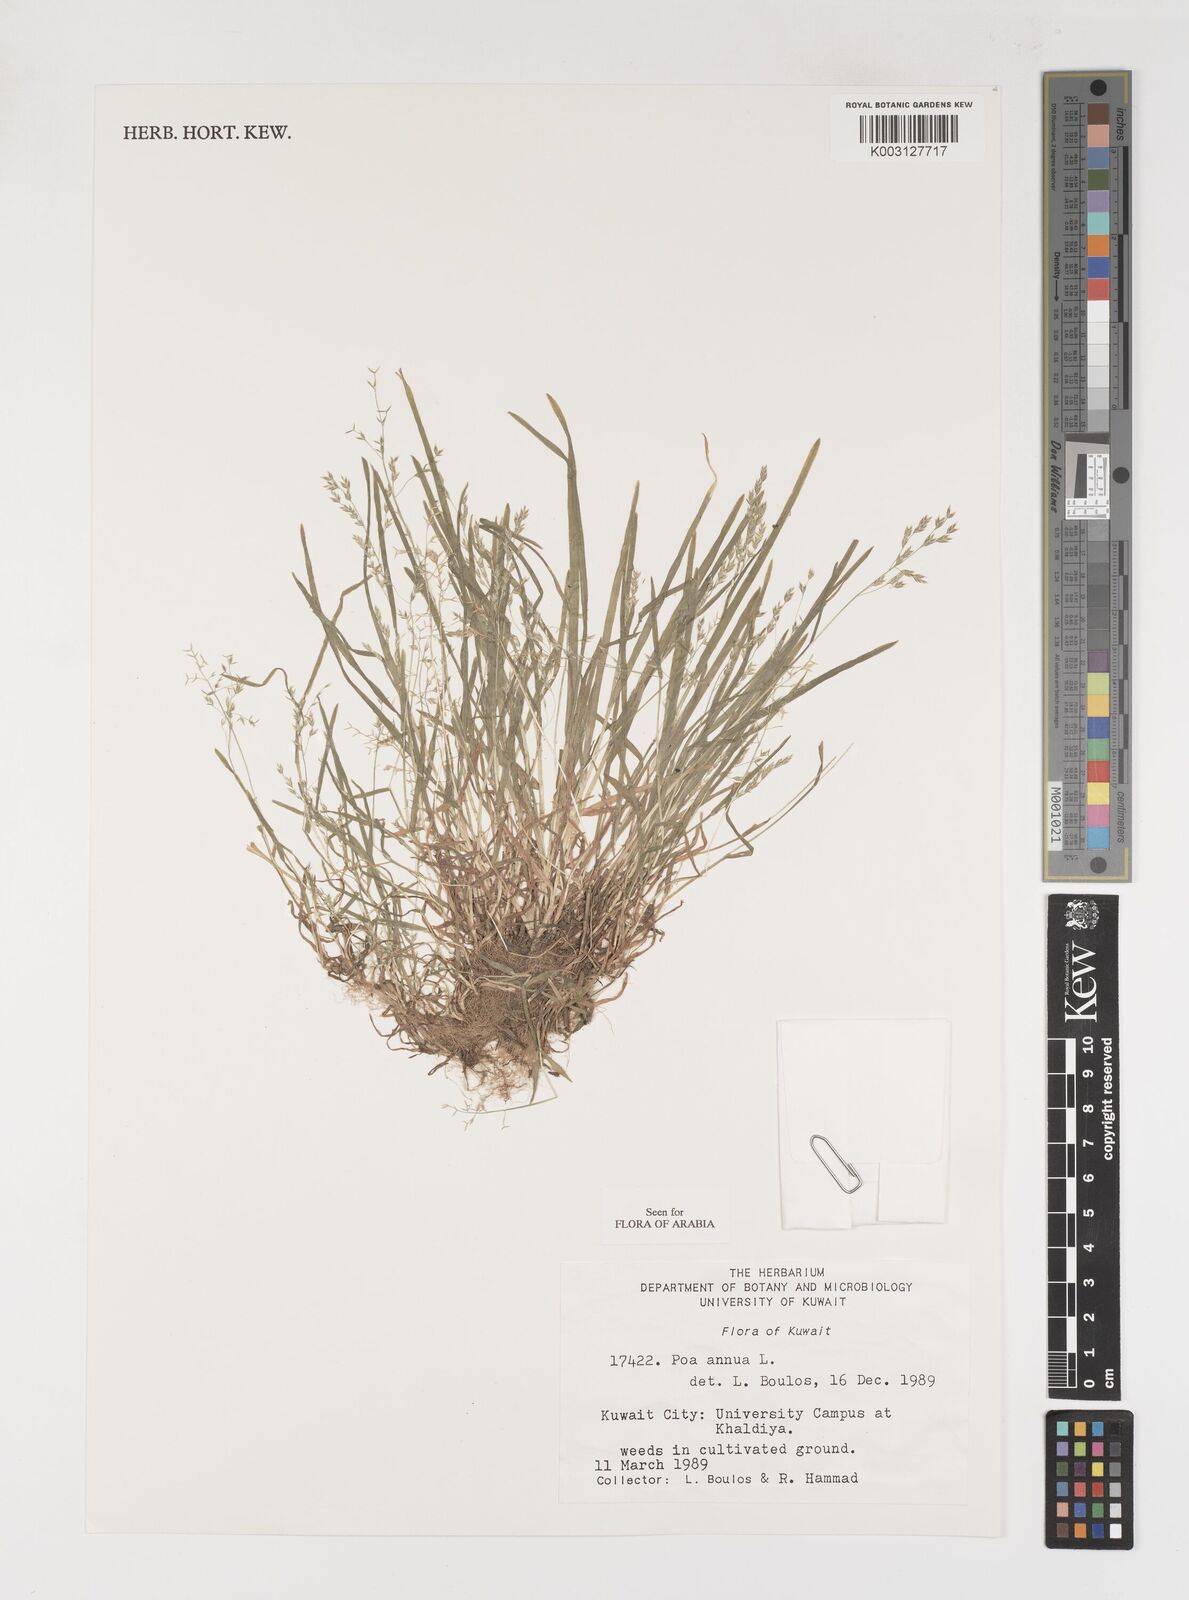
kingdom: Plantae
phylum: Tracheophyta
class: Liliopsida
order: Poales
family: Poaceae
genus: Poa
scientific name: Poa annua
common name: Annual bluegrass
